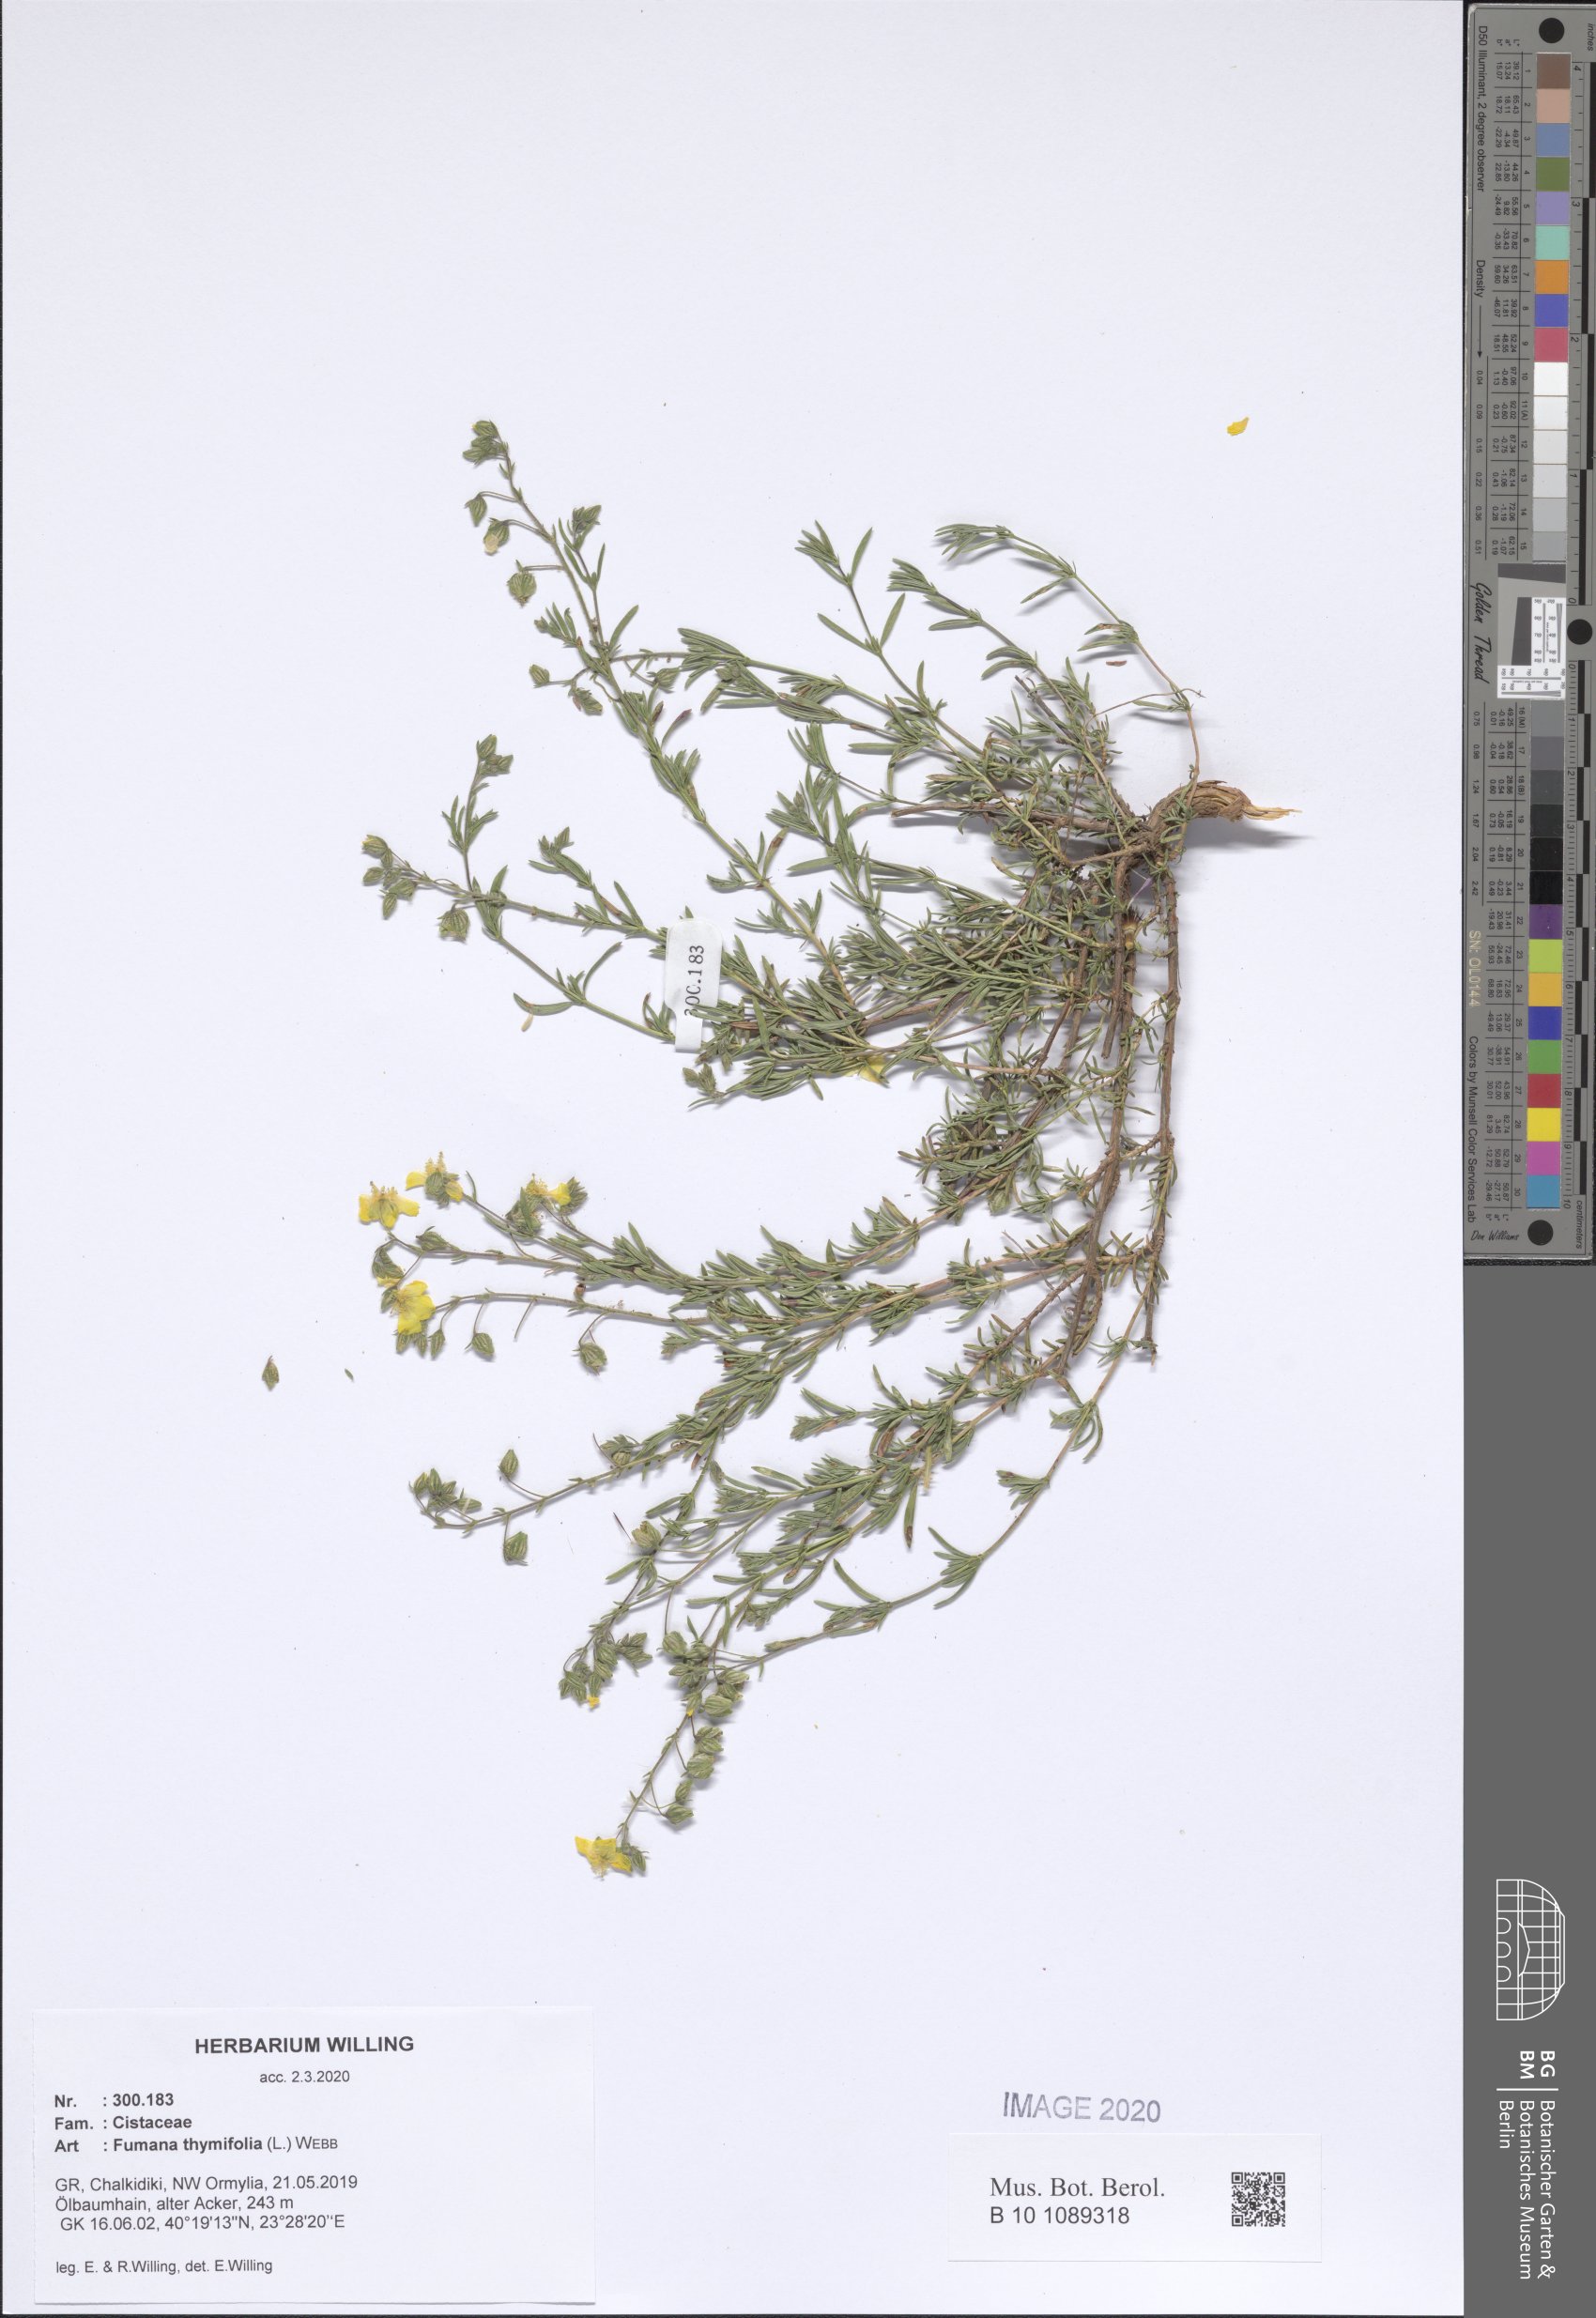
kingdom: Plantae
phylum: Tracheophyta
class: Magnoliopsida
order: Malvales
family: Cistaceae
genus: Fumana
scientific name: Fumana thymifolia
